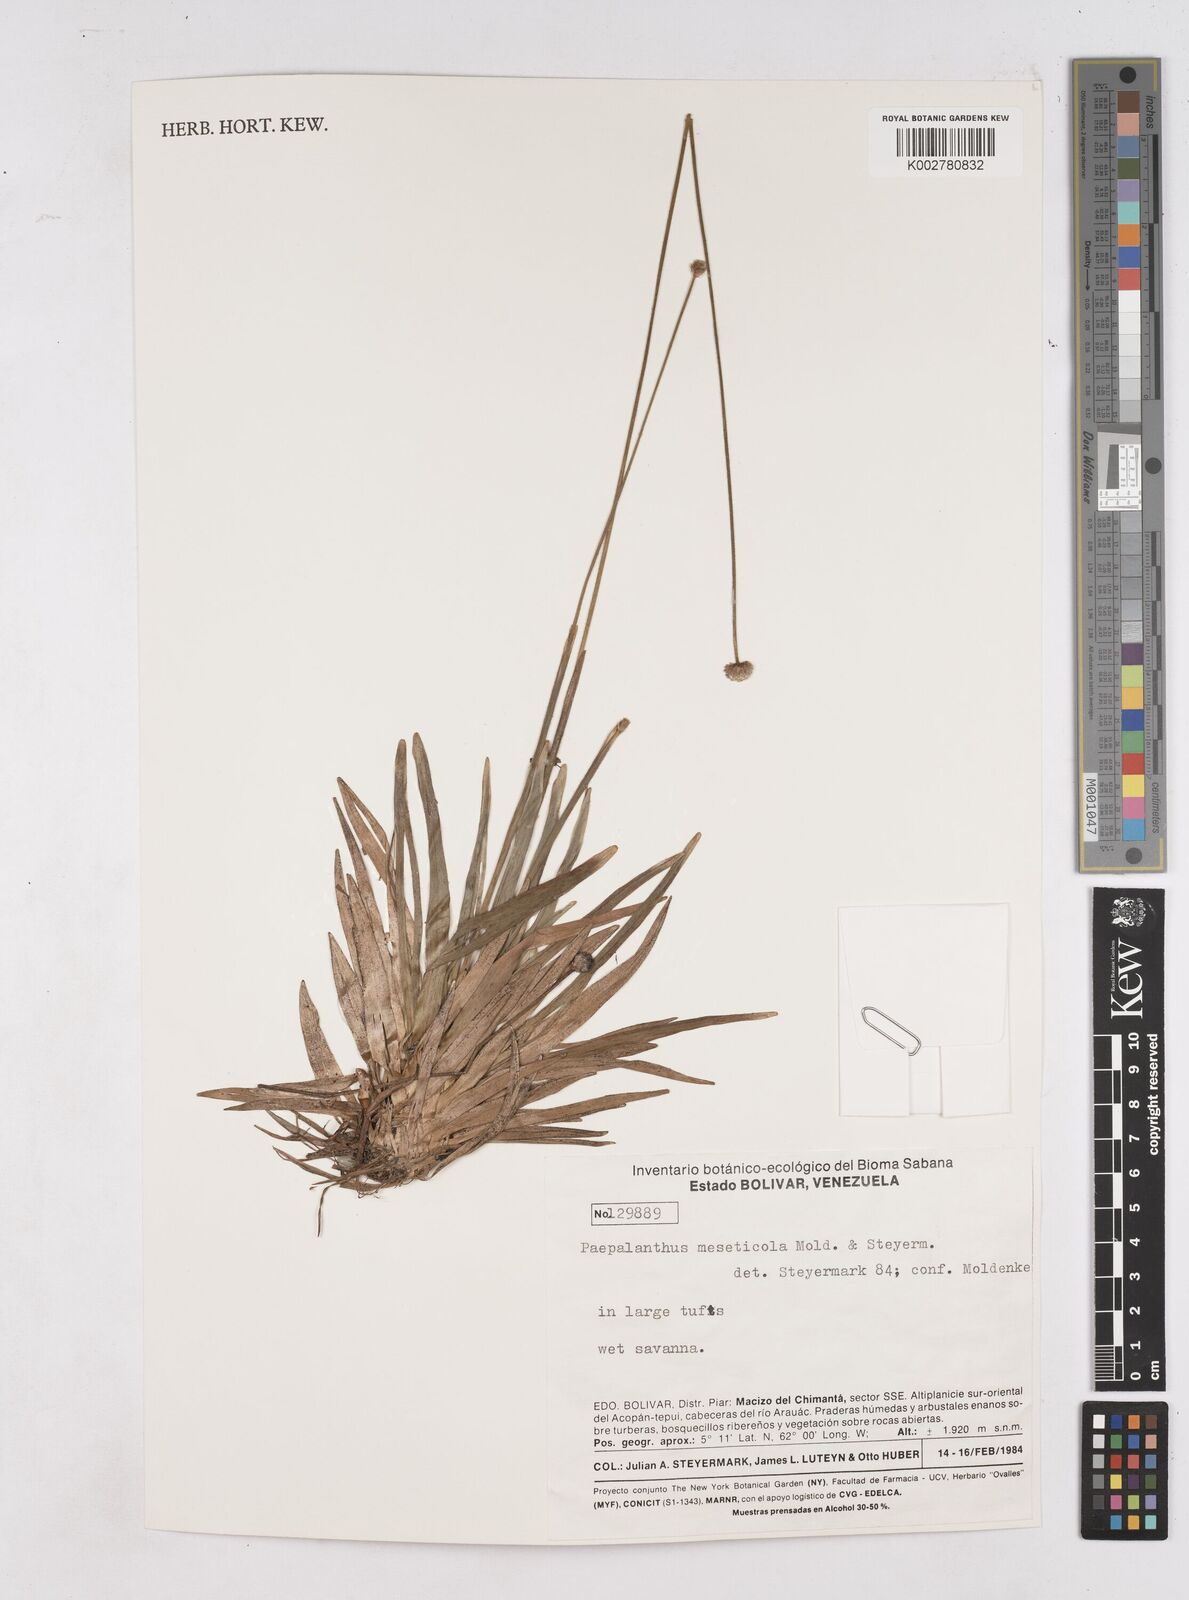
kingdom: Plantae
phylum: Tracheophyta
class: Liliopsida
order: Poales
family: Eriocaulaceae
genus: Leiothrix
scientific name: Leiothrix flavescens
